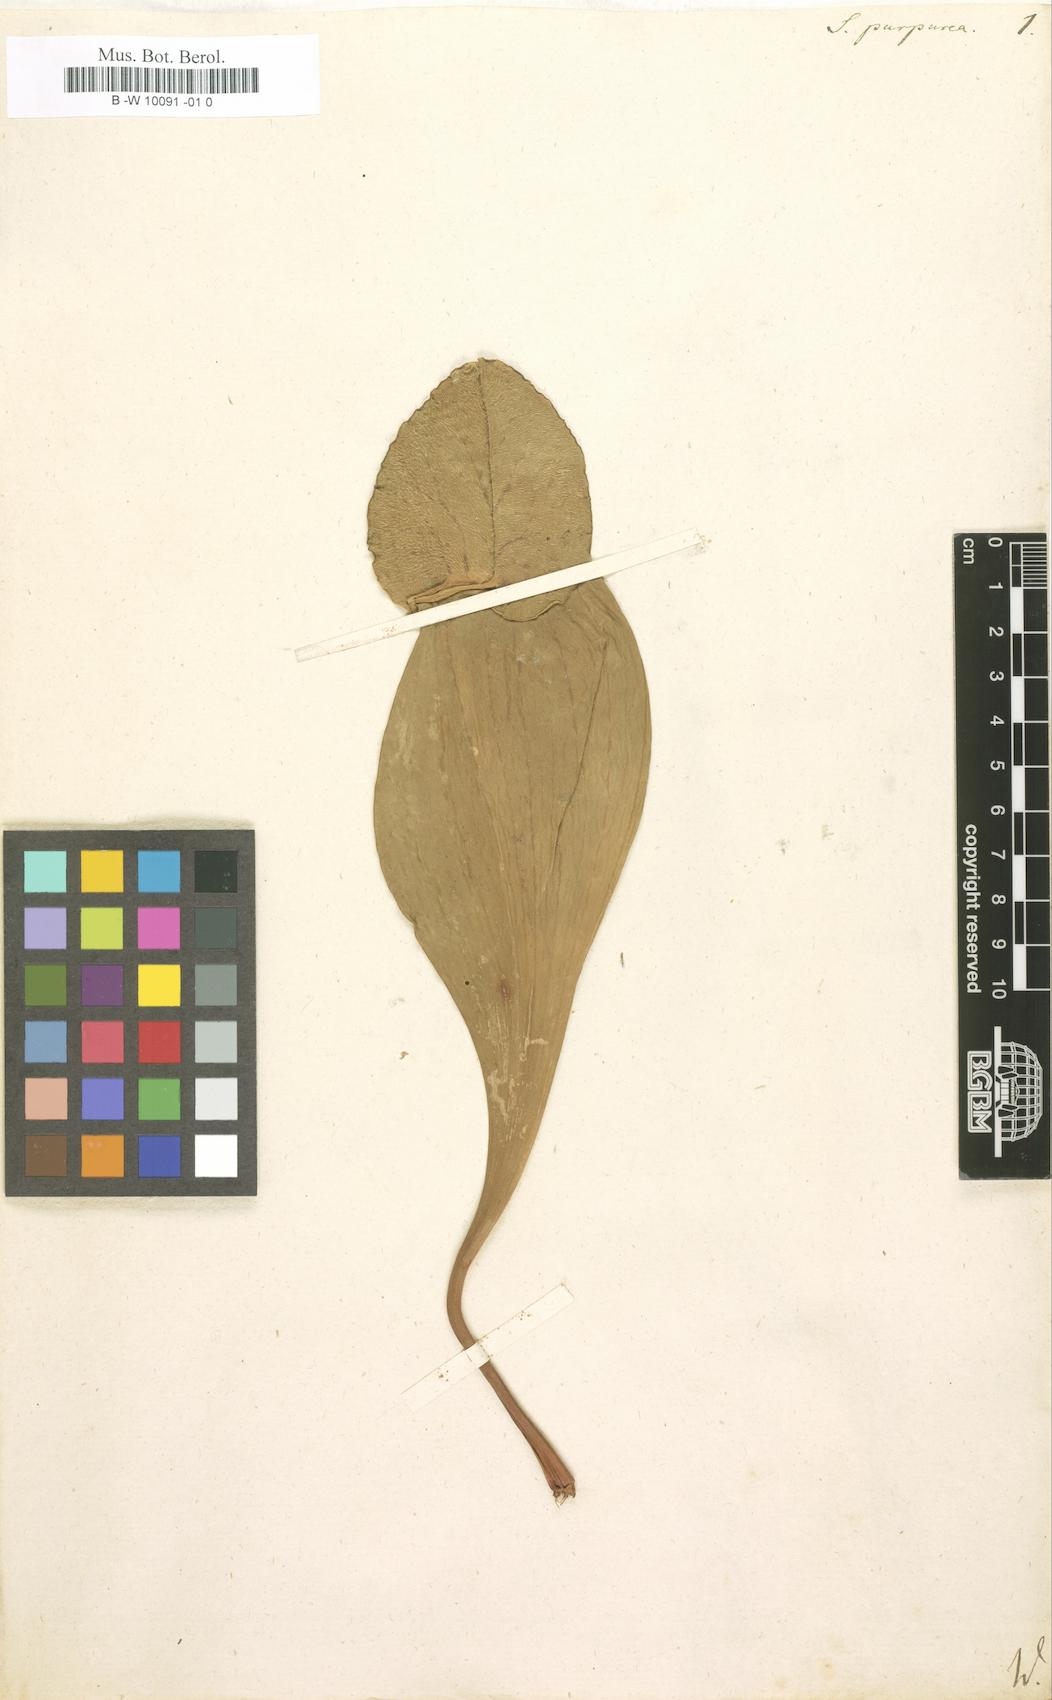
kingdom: Plantae
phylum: Tracheophyta
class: Magnoliopsida
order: Ericales
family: Sarraceniaceae
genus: Sarracenia
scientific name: Sarracenia purpurea
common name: Pitcherplant
